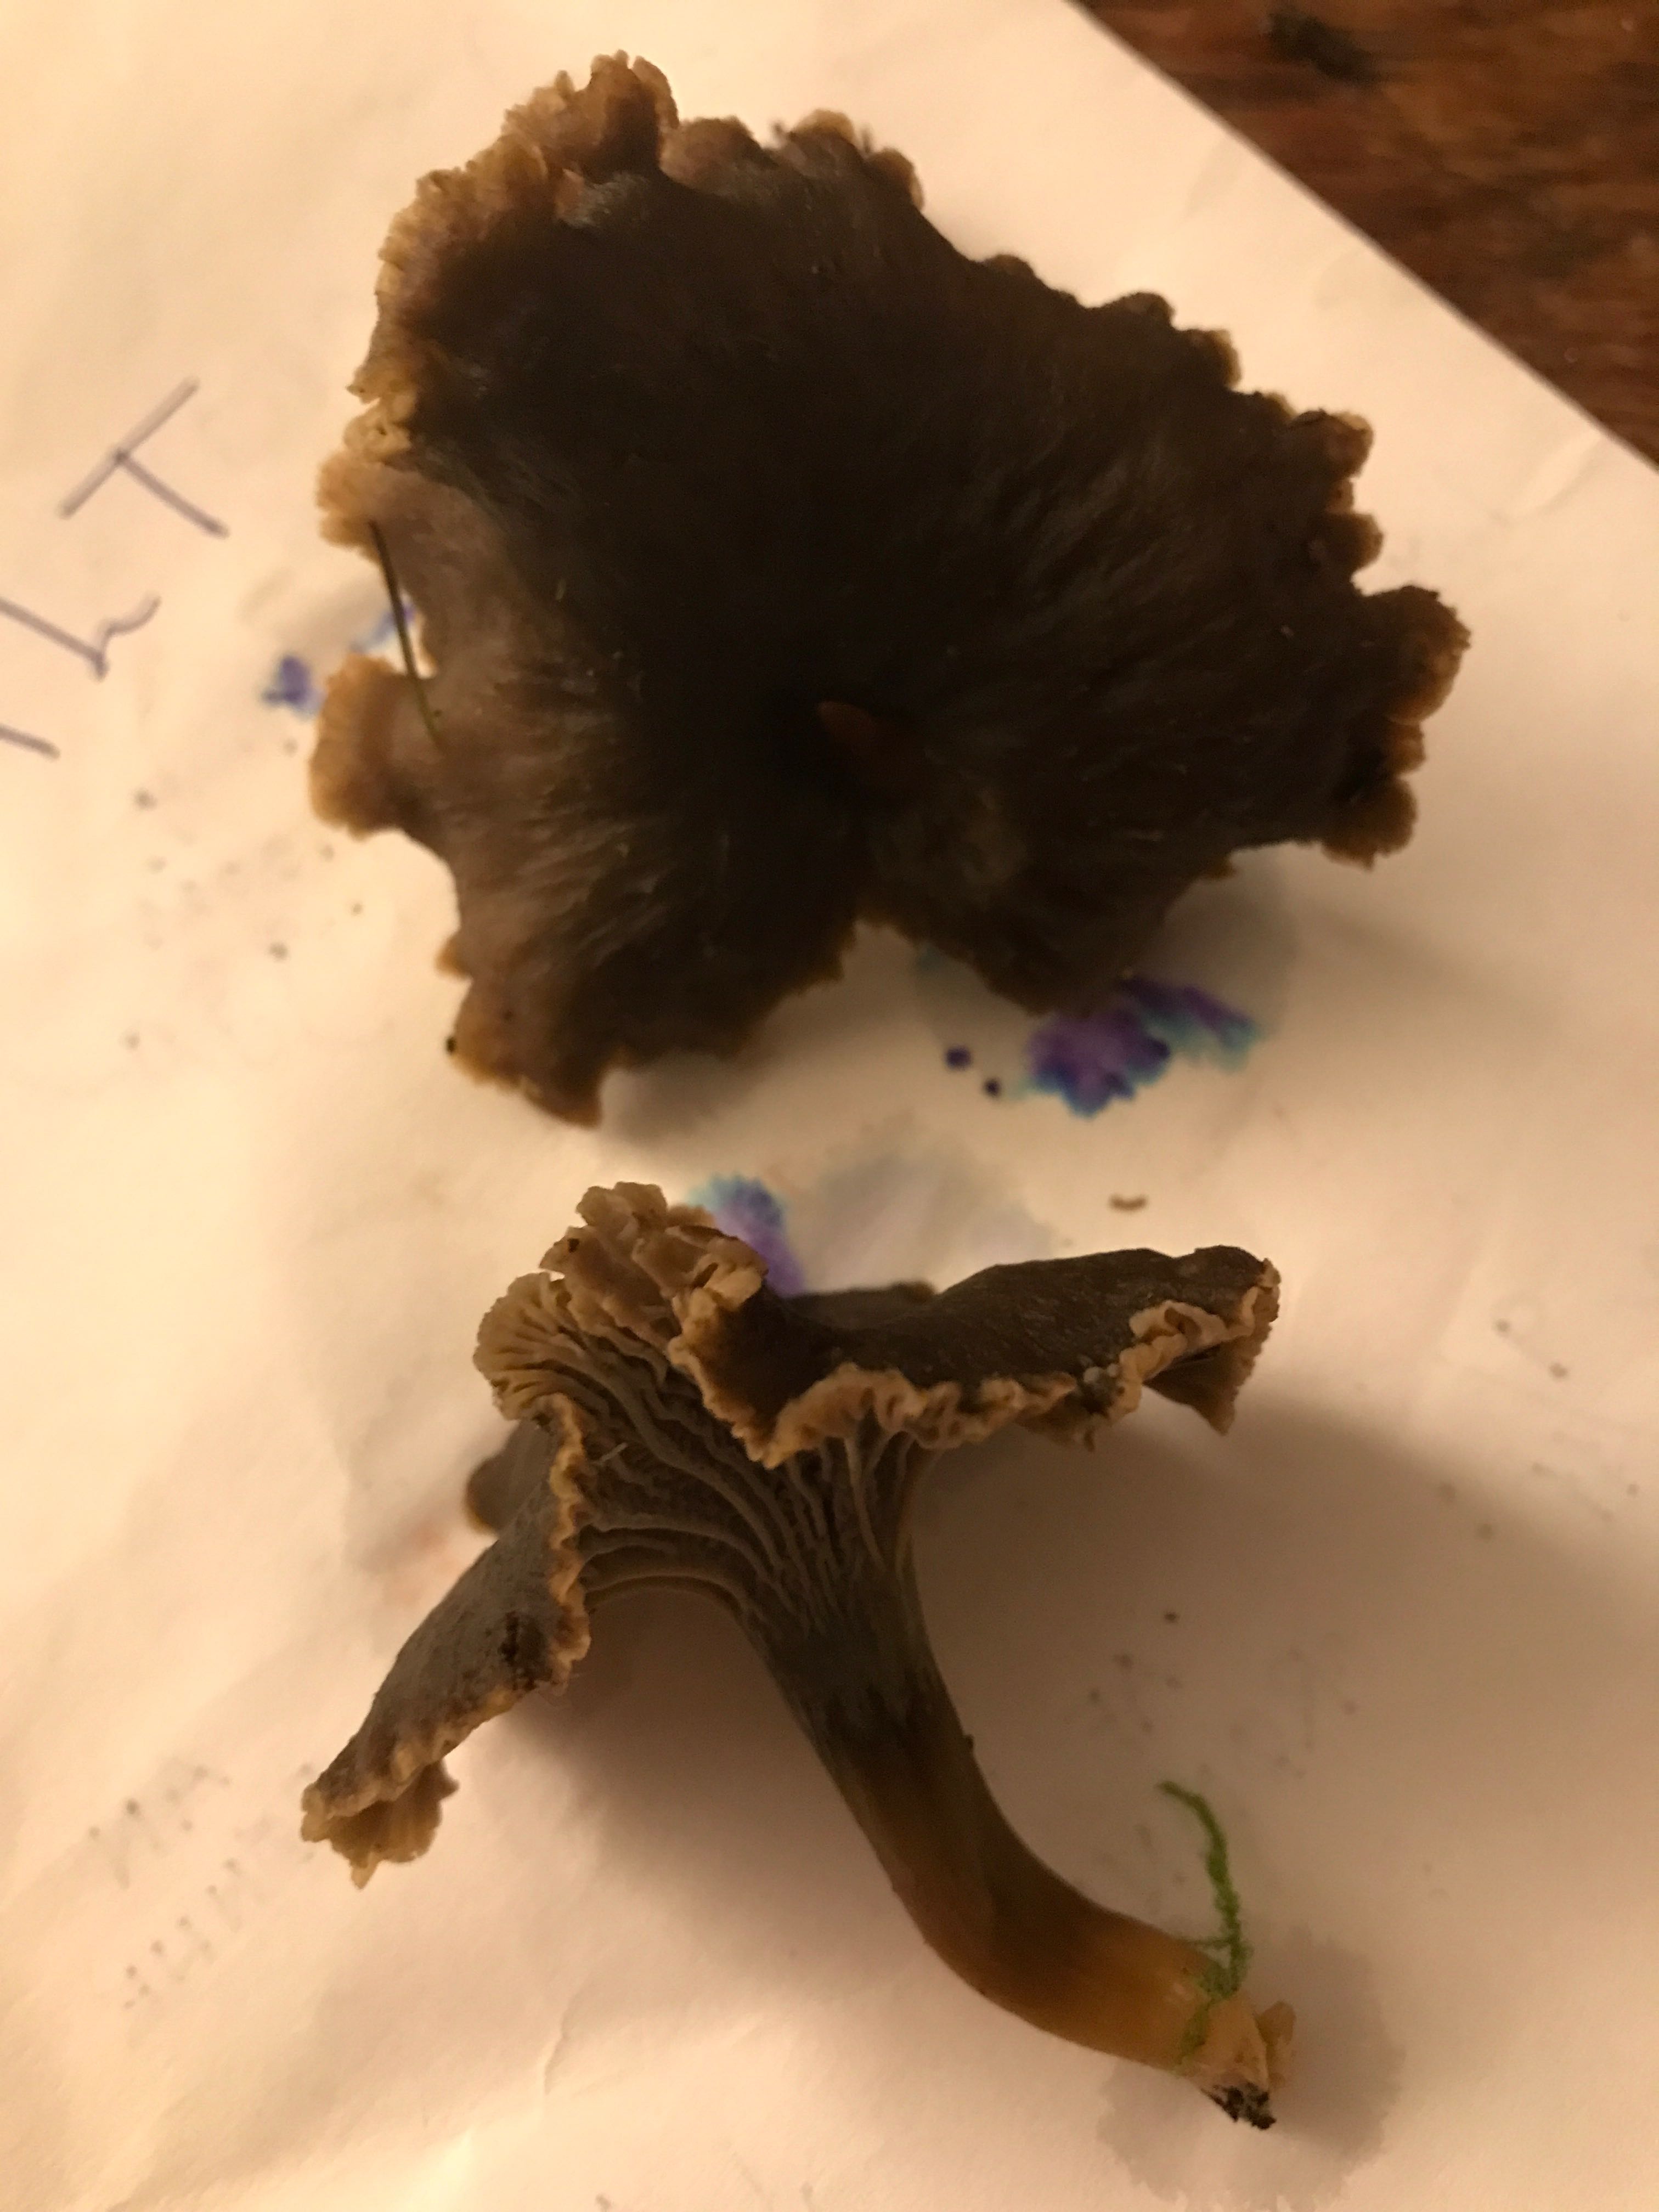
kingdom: Fungi
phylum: Basidiomycota
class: Agaricomycetes
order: Cantharellales
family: Hydnaceae
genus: Craterellus
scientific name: Craterellus tubaeformis
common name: tragt-kantarel
